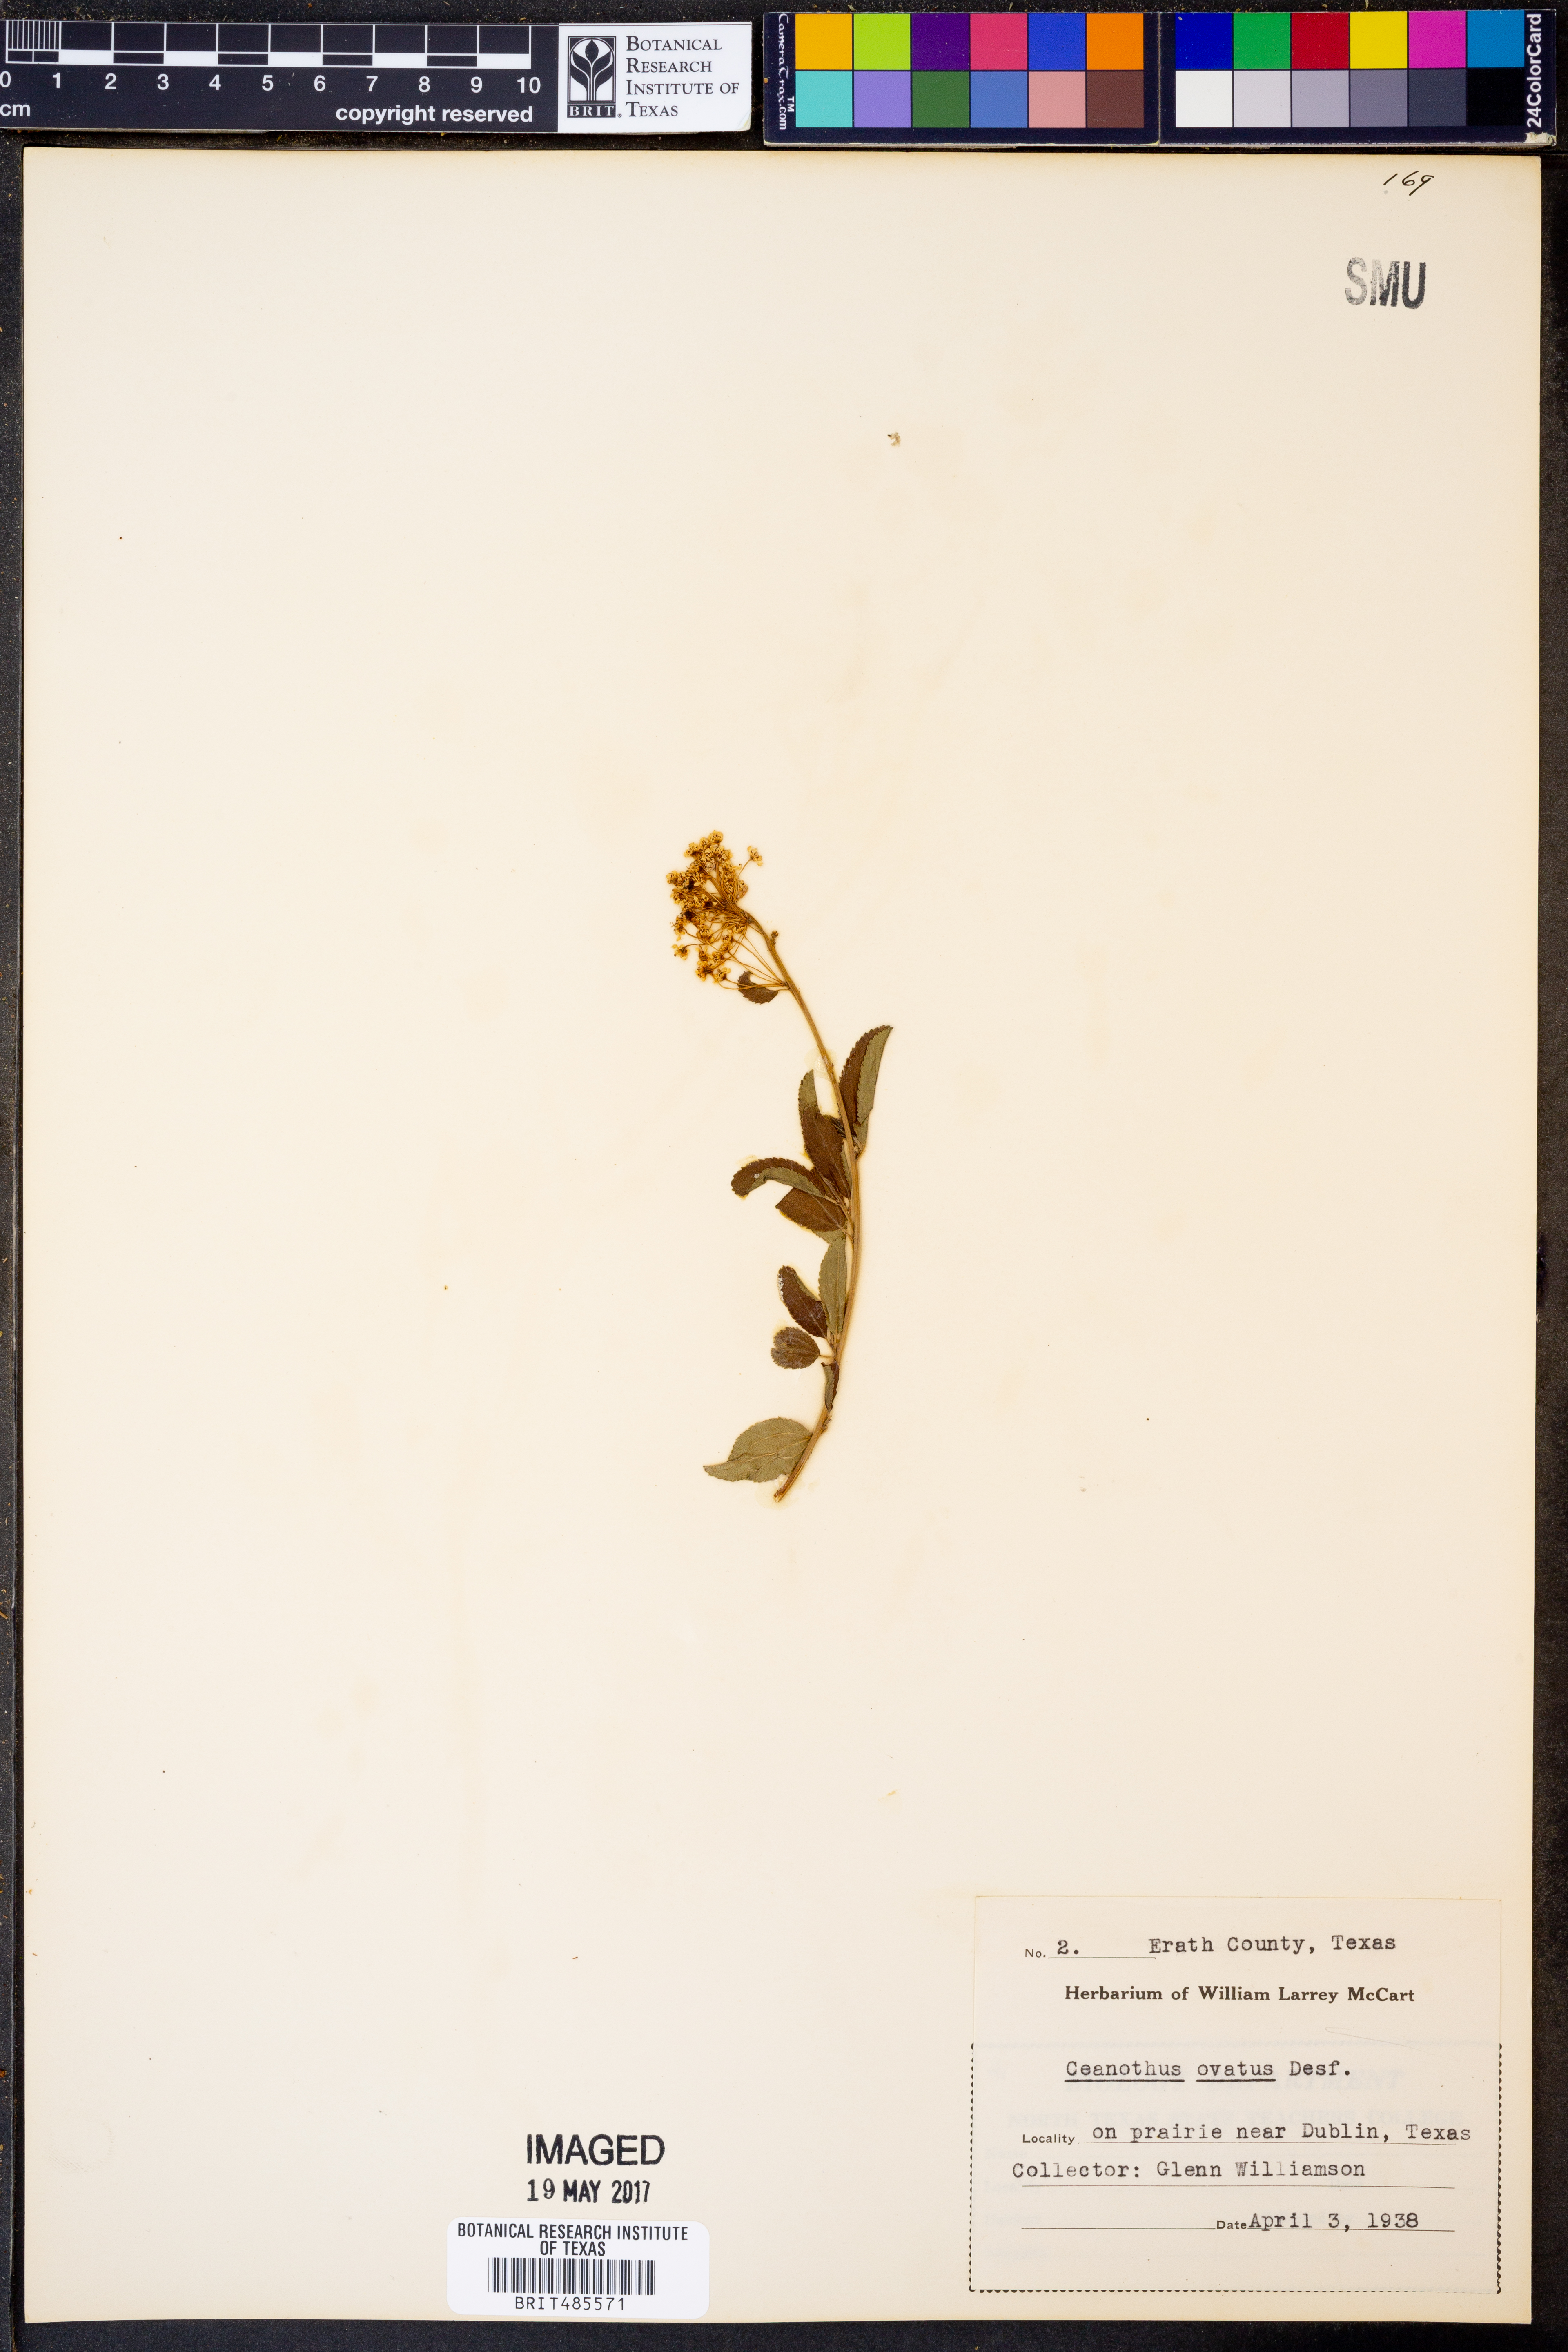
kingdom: Plantae
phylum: Tracheophyta
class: Magnoliopsida
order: Rosales
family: Rhamnaceae
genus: Ceanothus
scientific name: Ceanothus herbaceus
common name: Inland ceanothus
